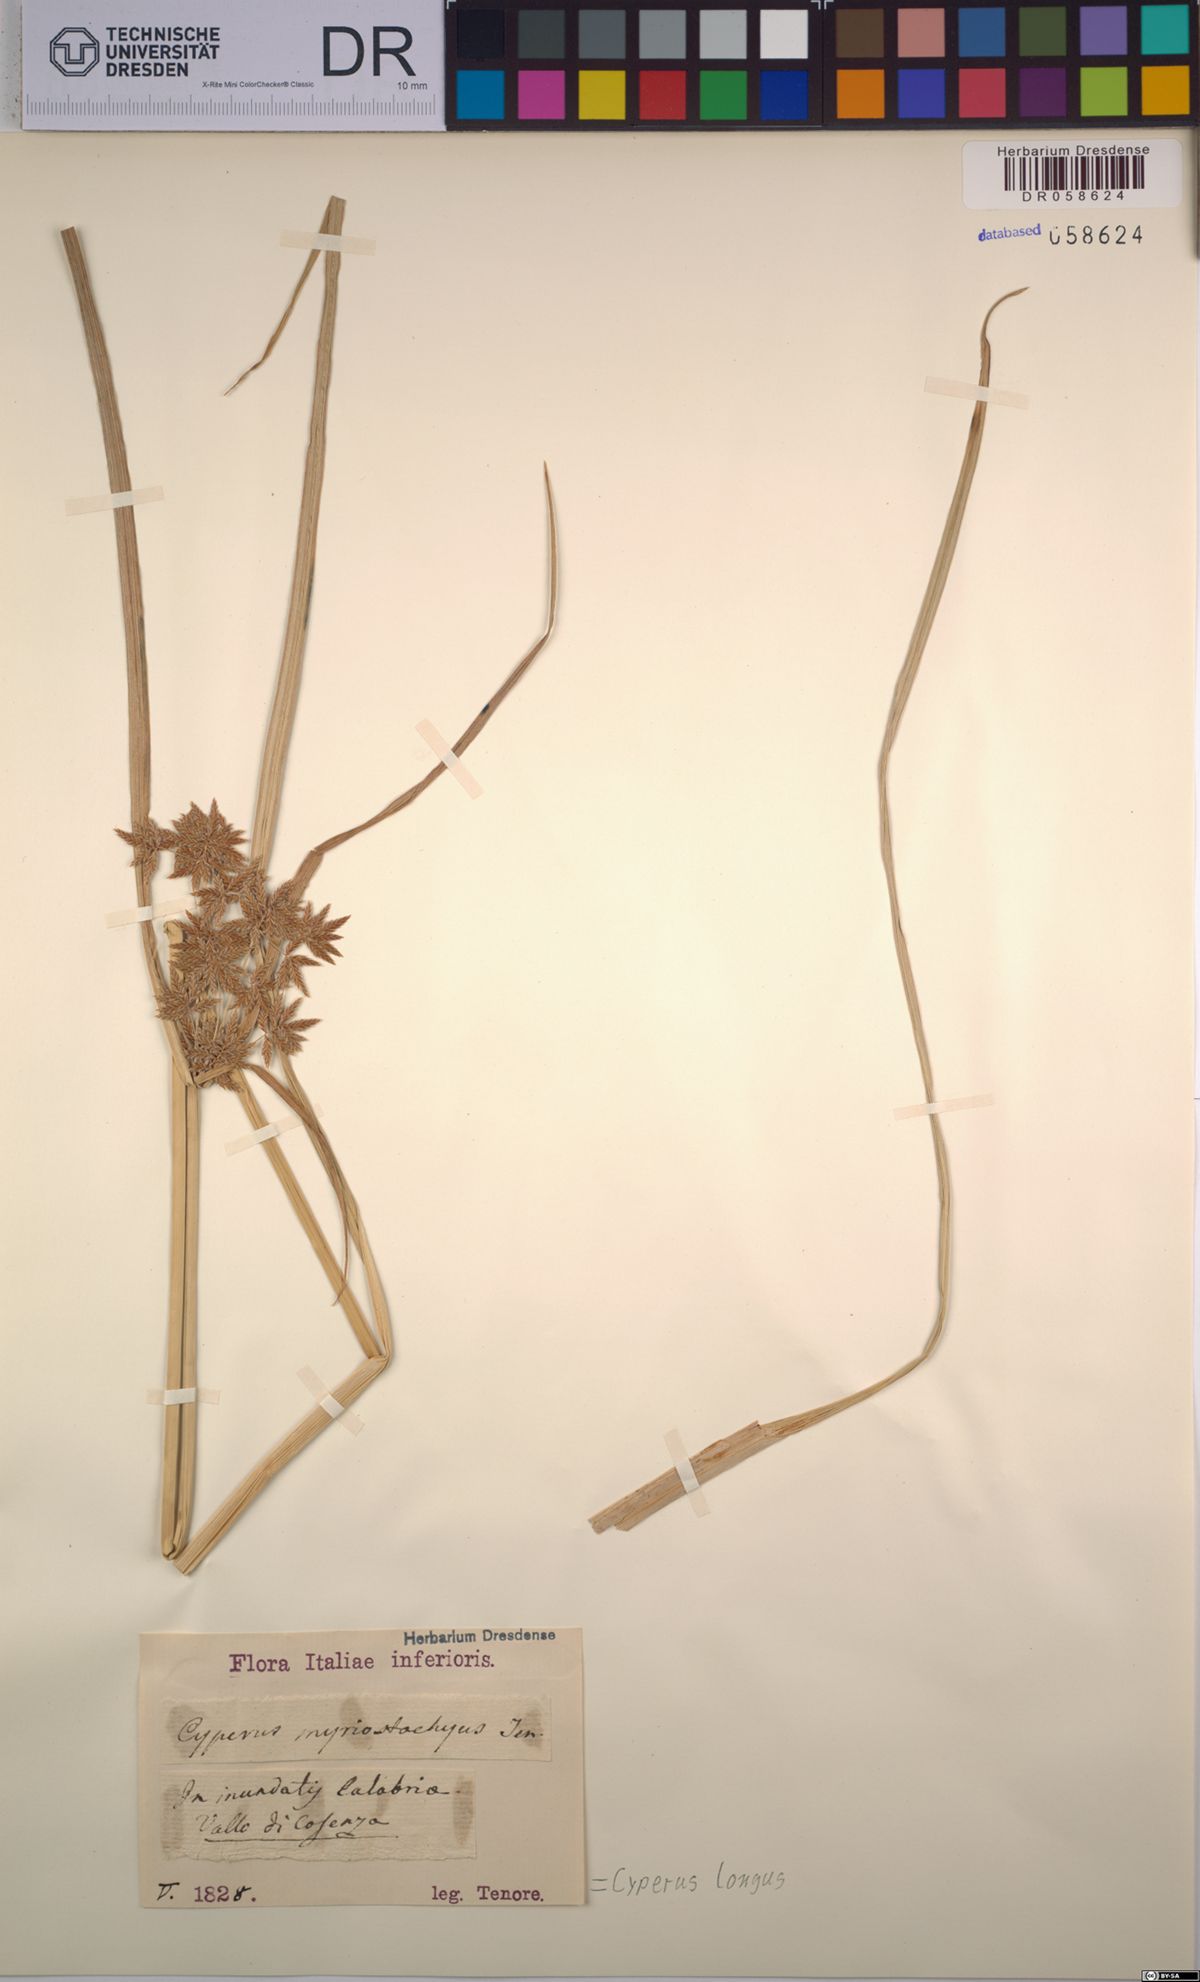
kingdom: Plantae
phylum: Tracheophyta
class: Liliopsida
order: Poales
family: Cyperaceae
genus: Cyperus
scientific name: Cyperus longus
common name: Galingale
